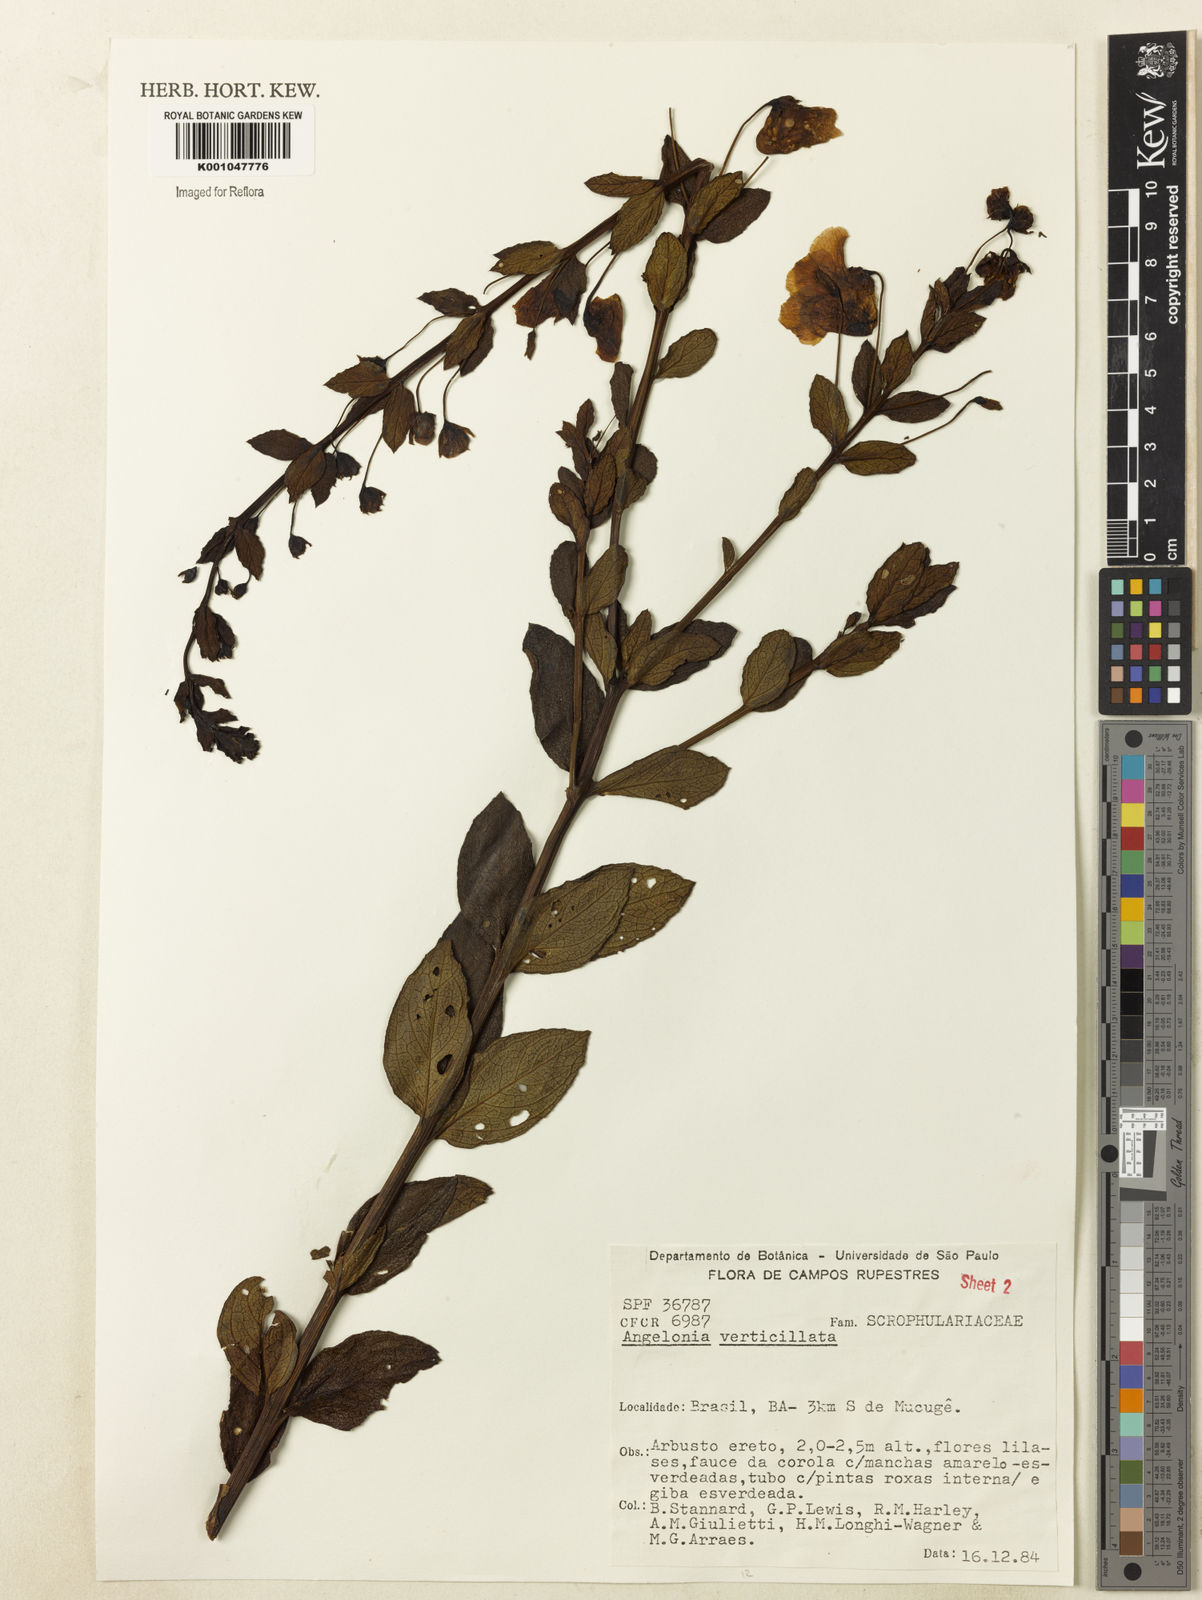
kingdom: Plantae
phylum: Tracheophyta
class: Magnoliopsida
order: Lamiales
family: Plantaginaceae
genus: Angelonia
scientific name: Angelonia verticillata
